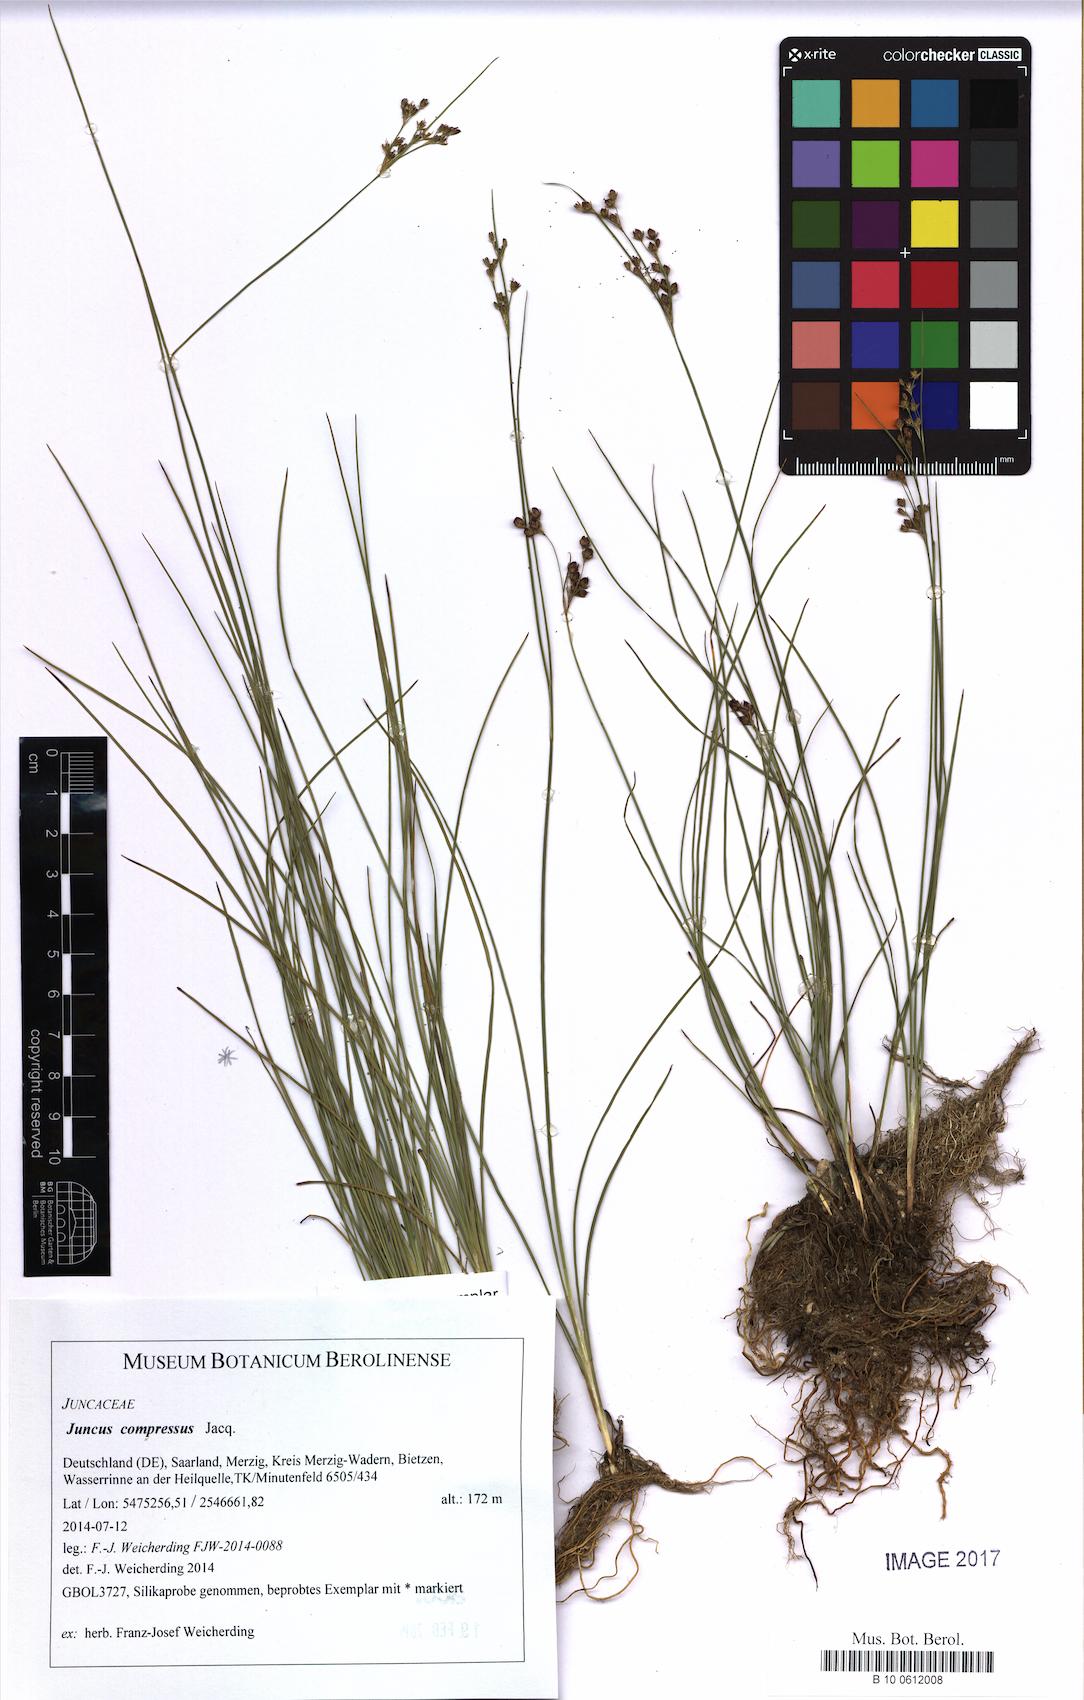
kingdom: Plantae
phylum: Tracheophyta
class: Liliopsida
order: Poales
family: Juncaceae
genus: Juncus
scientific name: Juncus compressus
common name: Round-fruited rush
